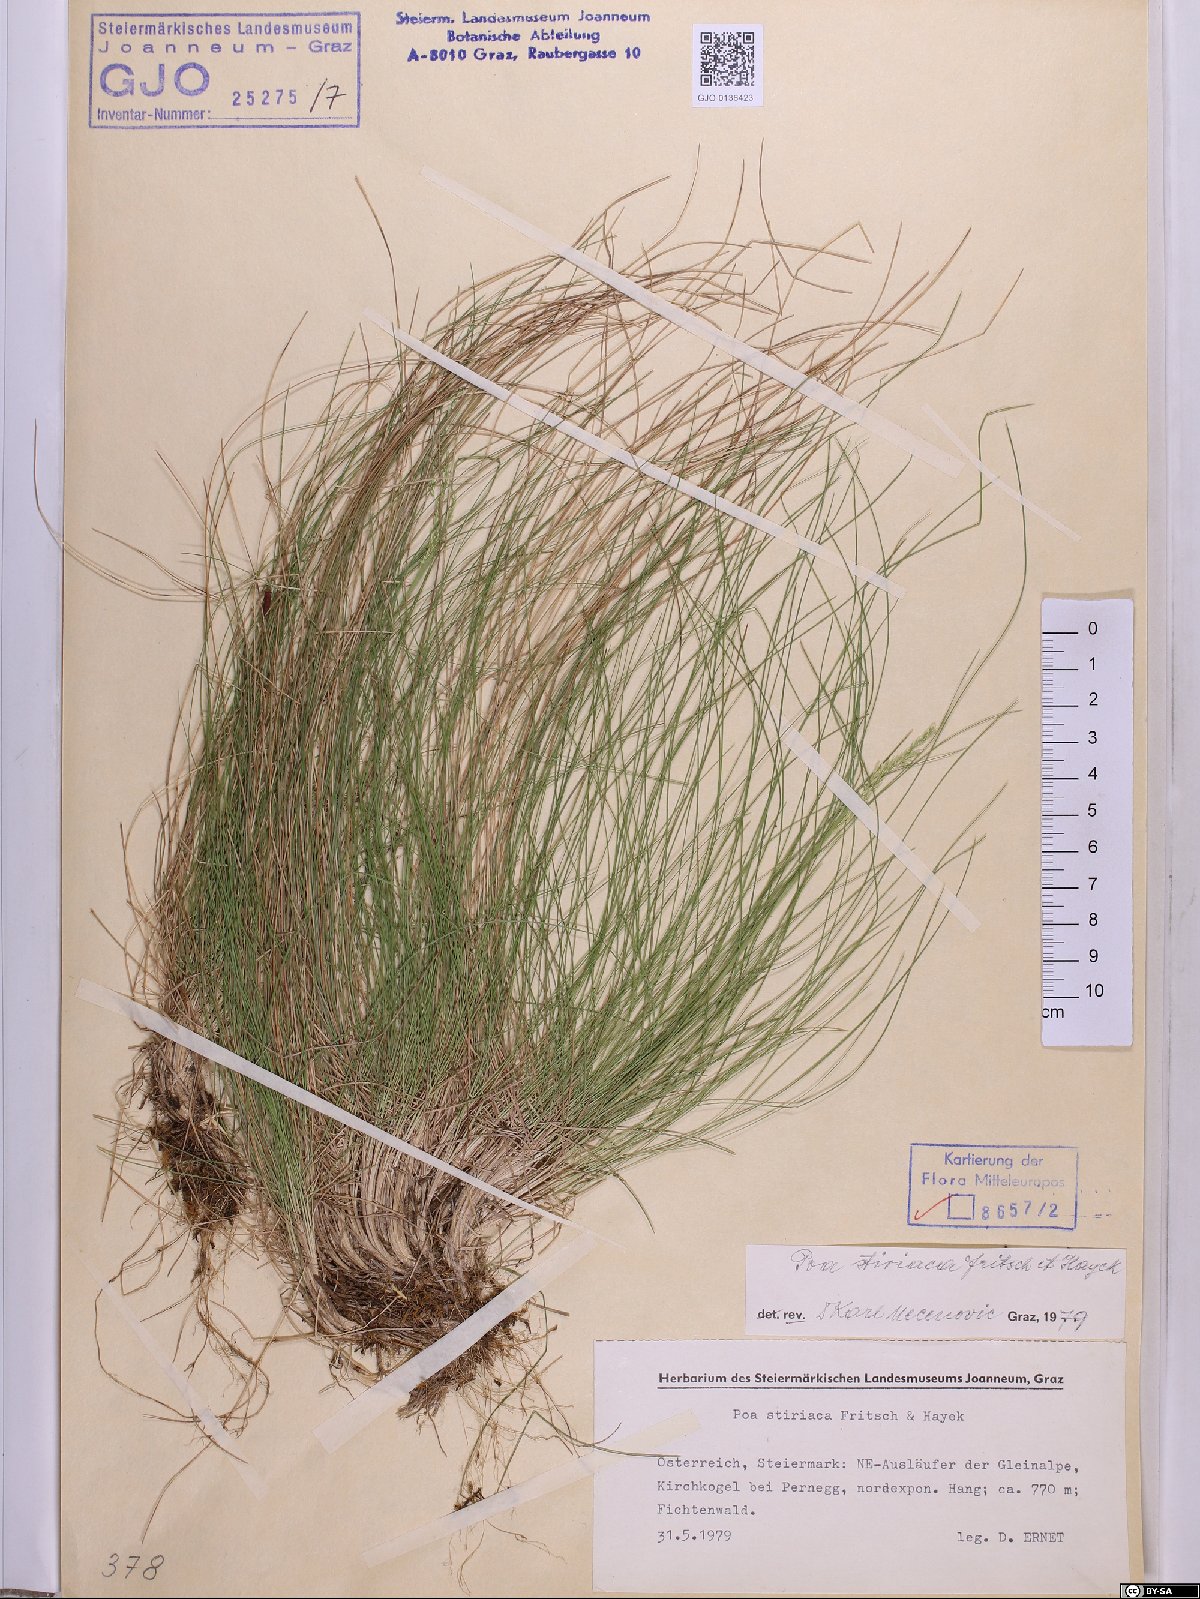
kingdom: Plantae
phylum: Tracheophyta
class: Liliopsida
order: Poales
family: Poaceae
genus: Poa
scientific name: Poa stiriaca
